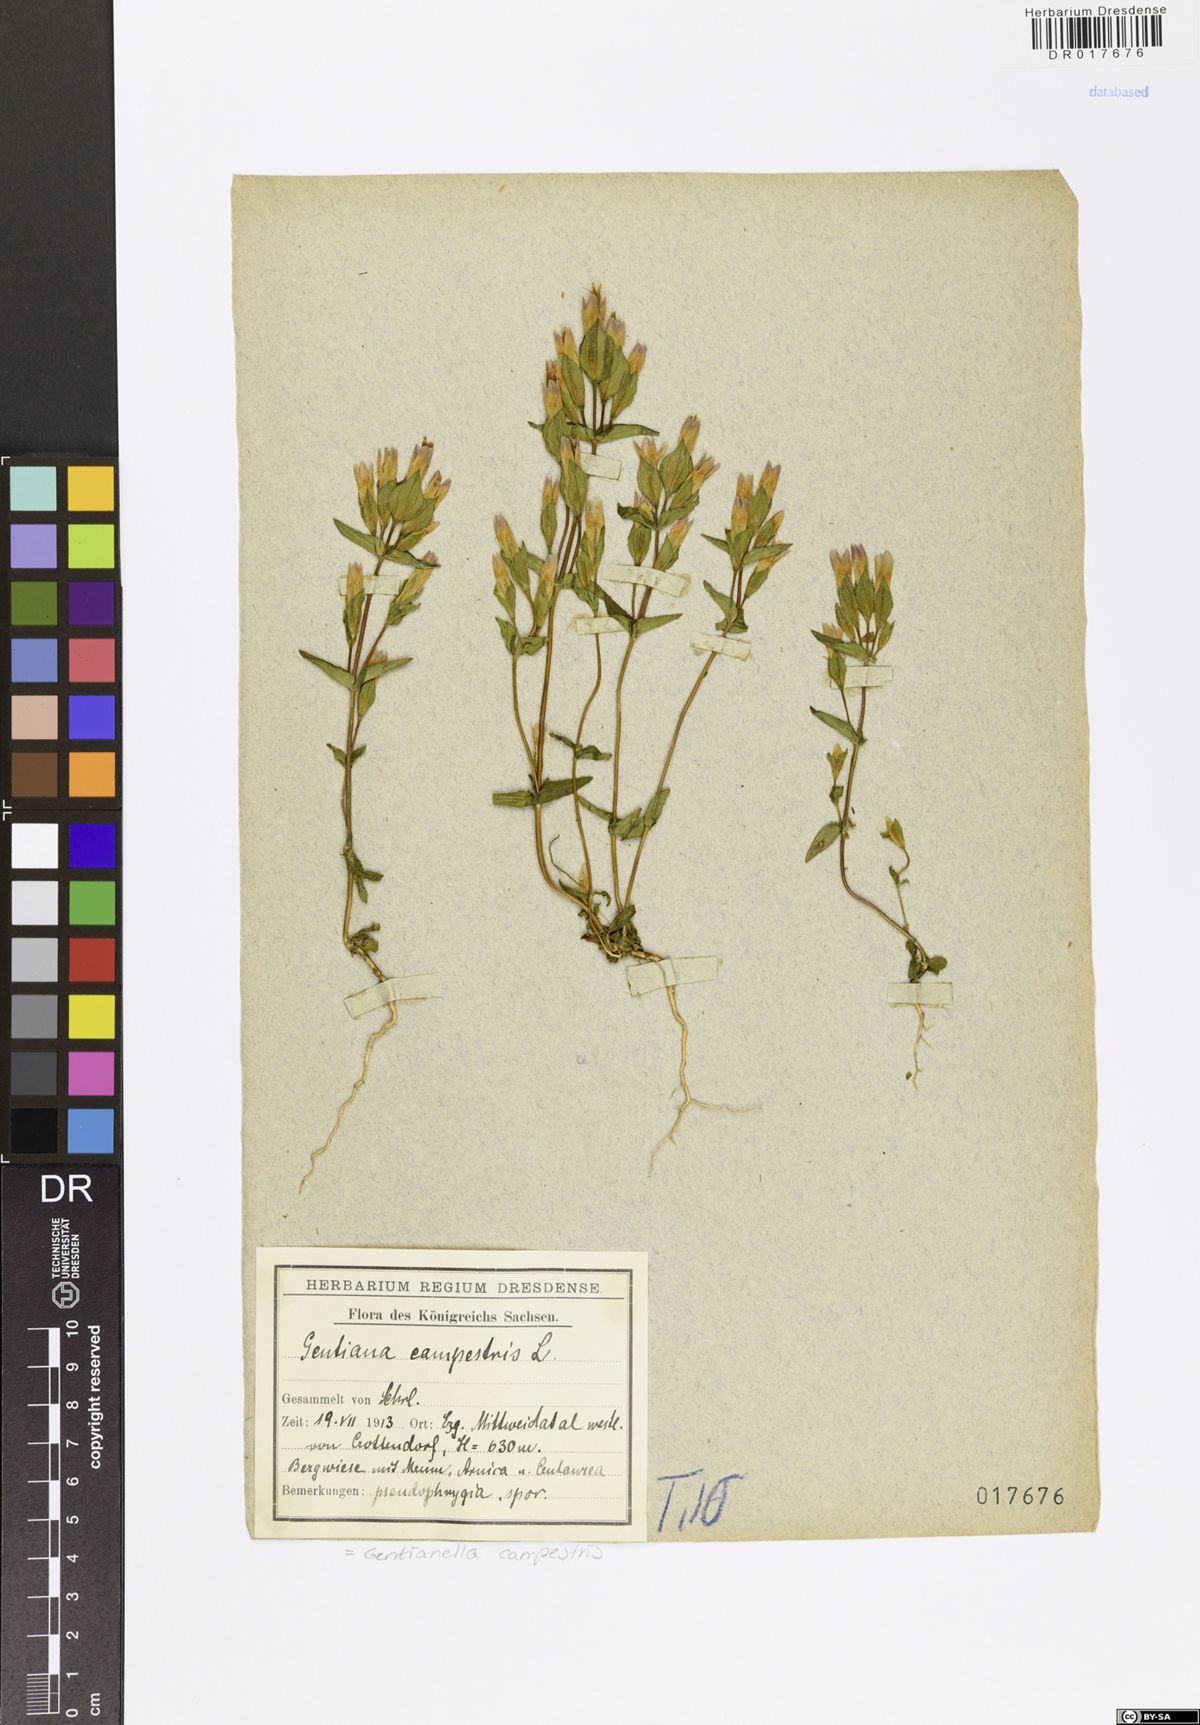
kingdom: Plantae
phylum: Tracheophyta
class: Magnoliopsida
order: Gentianales
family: Gentianaceae
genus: Gentianella
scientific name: Gentianella campestris
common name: Field gentian
